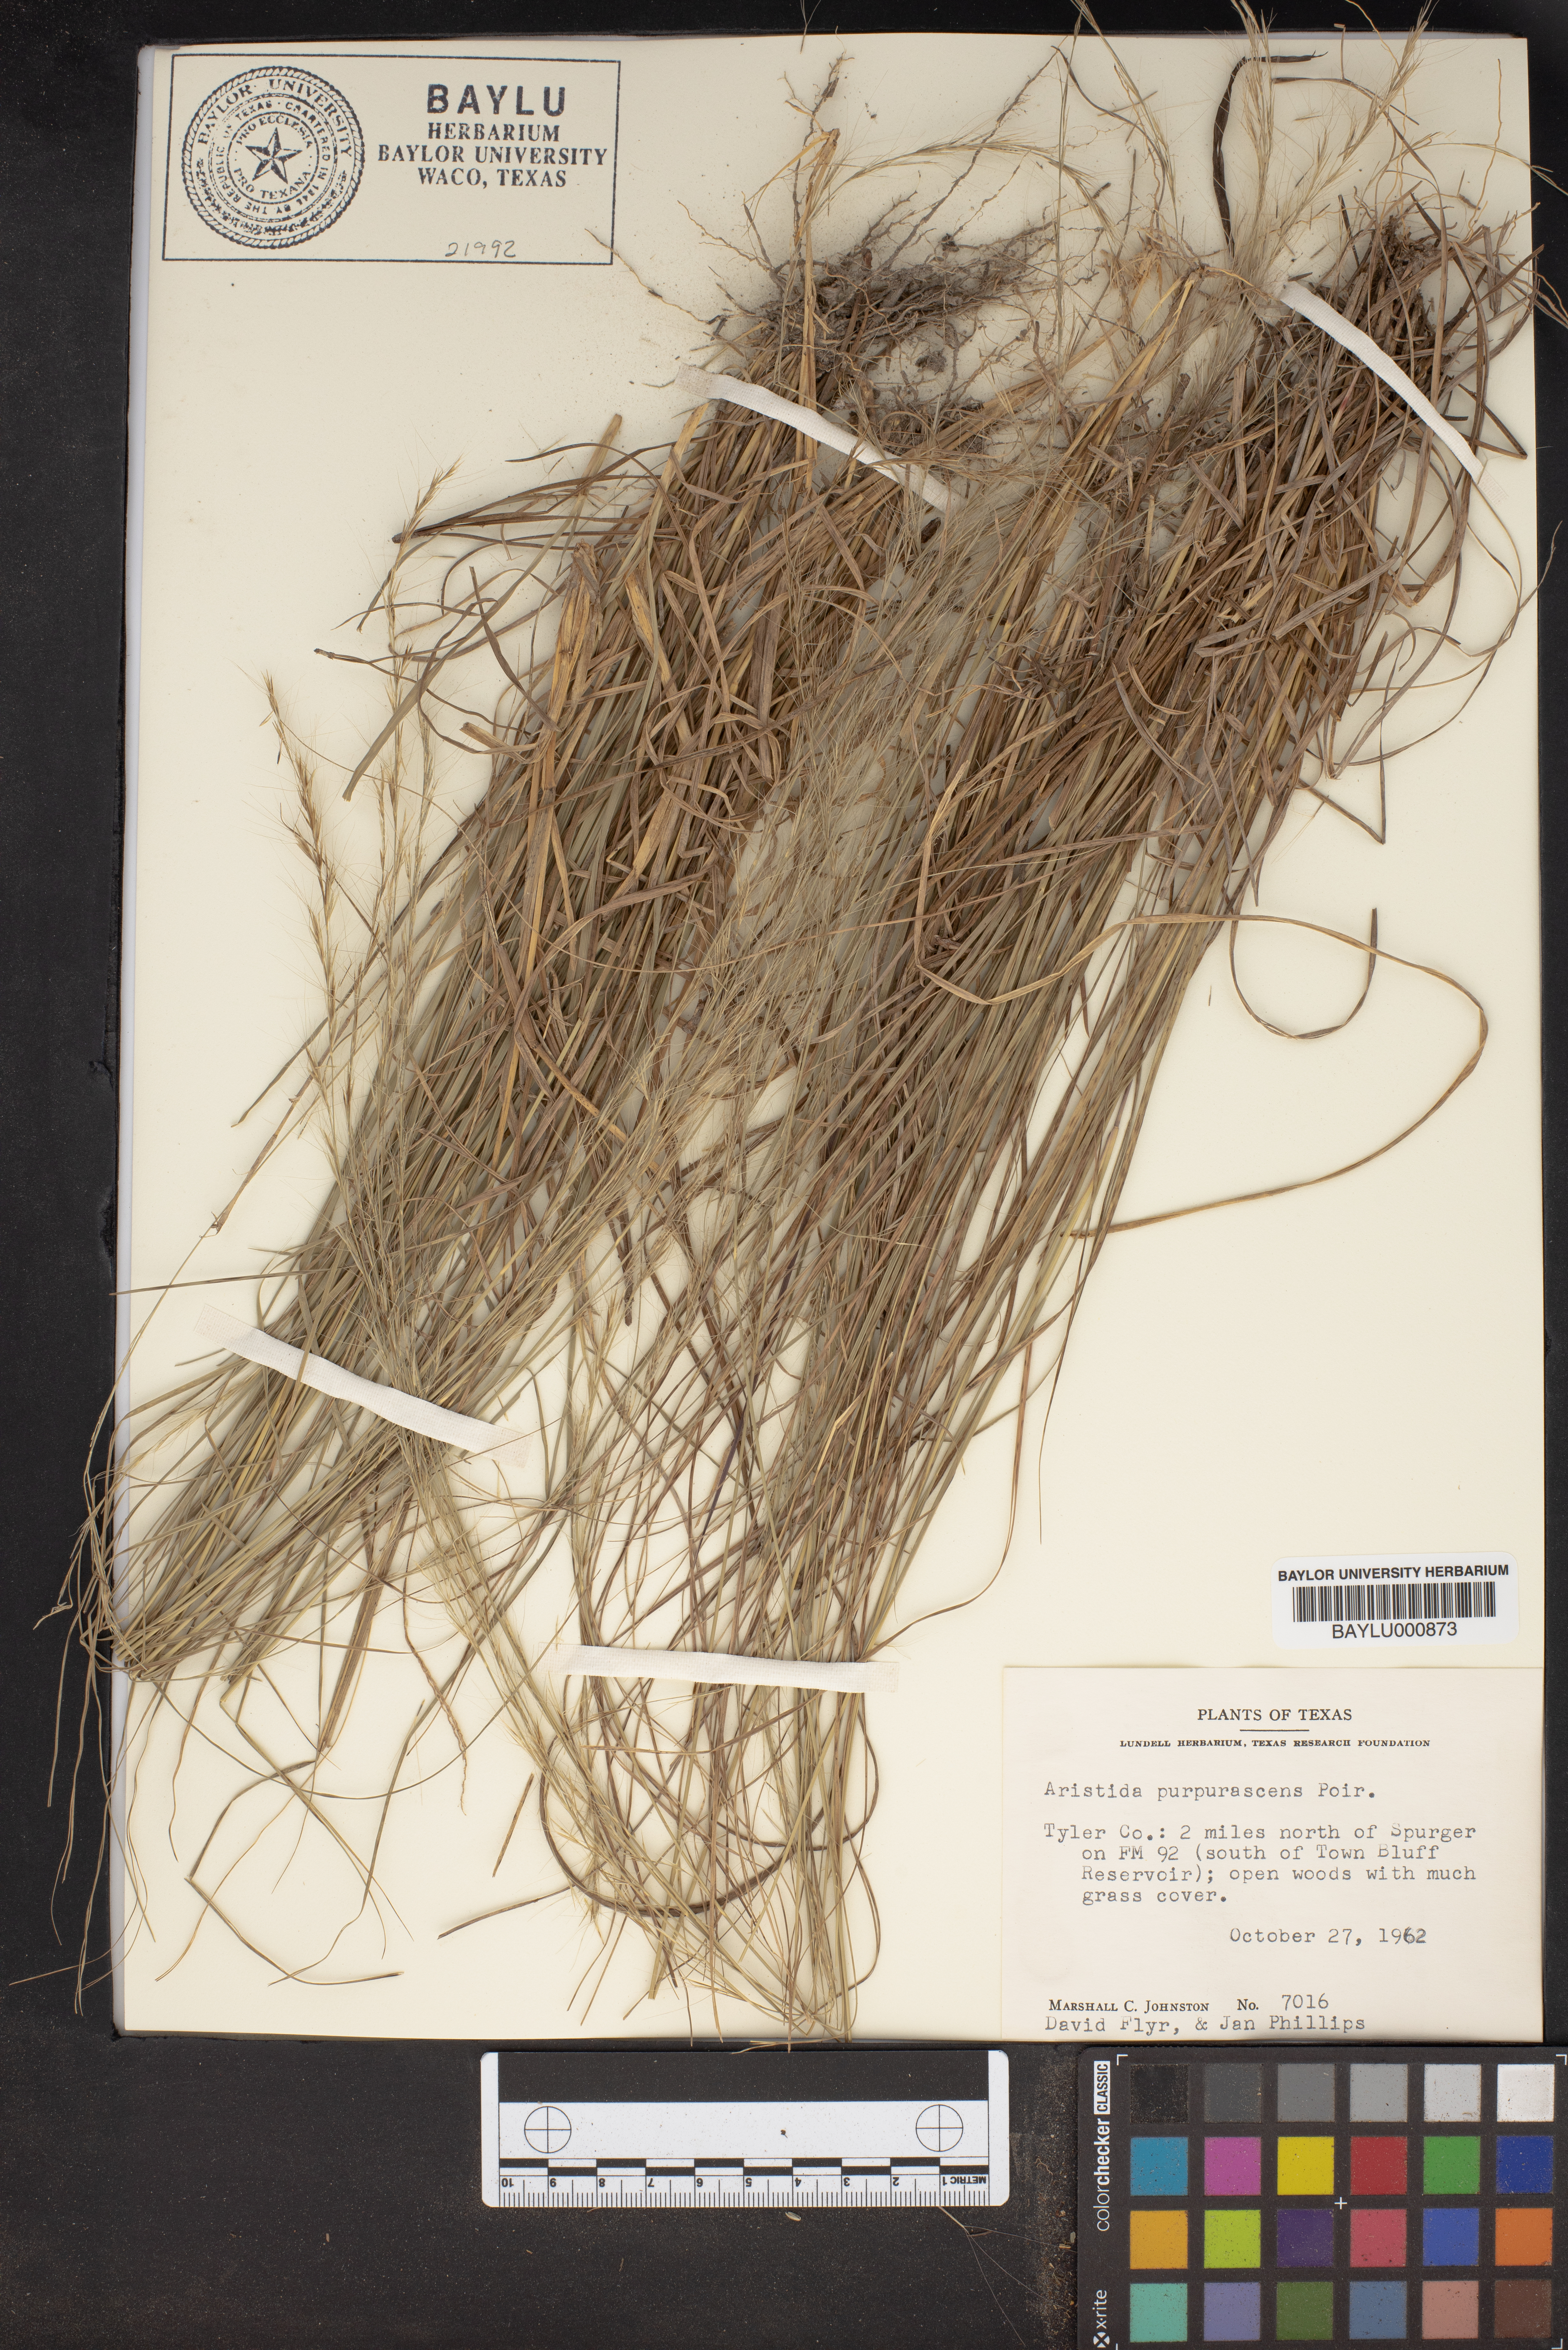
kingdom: Plantae
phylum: Tracheophyta
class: Liliopsida
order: Poales
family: Poaceae
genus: Aristida
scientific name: Aristida purpurascens
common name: Arrow-feather
